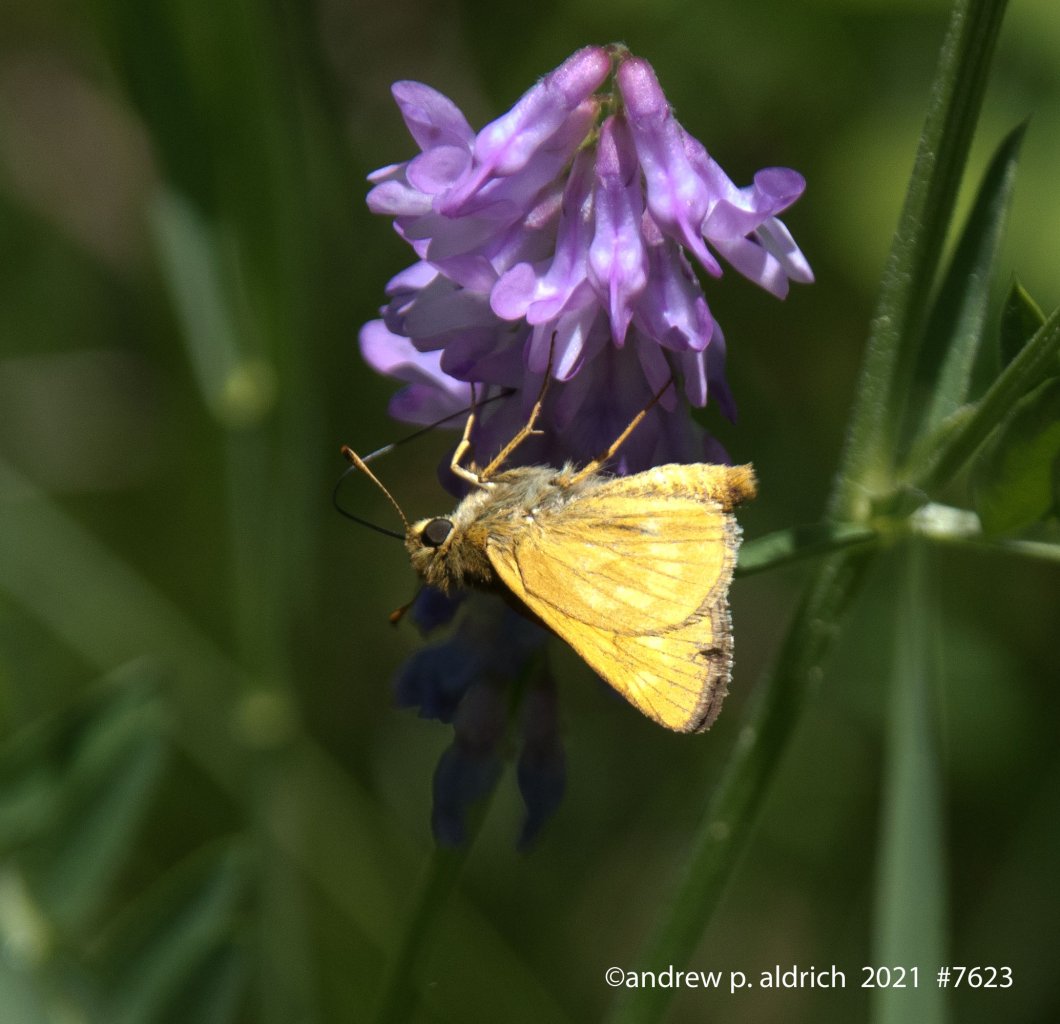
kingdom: Animalia
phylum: Arthropoda
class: Insecta
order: Lepidoptera
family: Hesperiidae
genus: Polites
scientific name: Polites
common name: Long Dash Skipper
